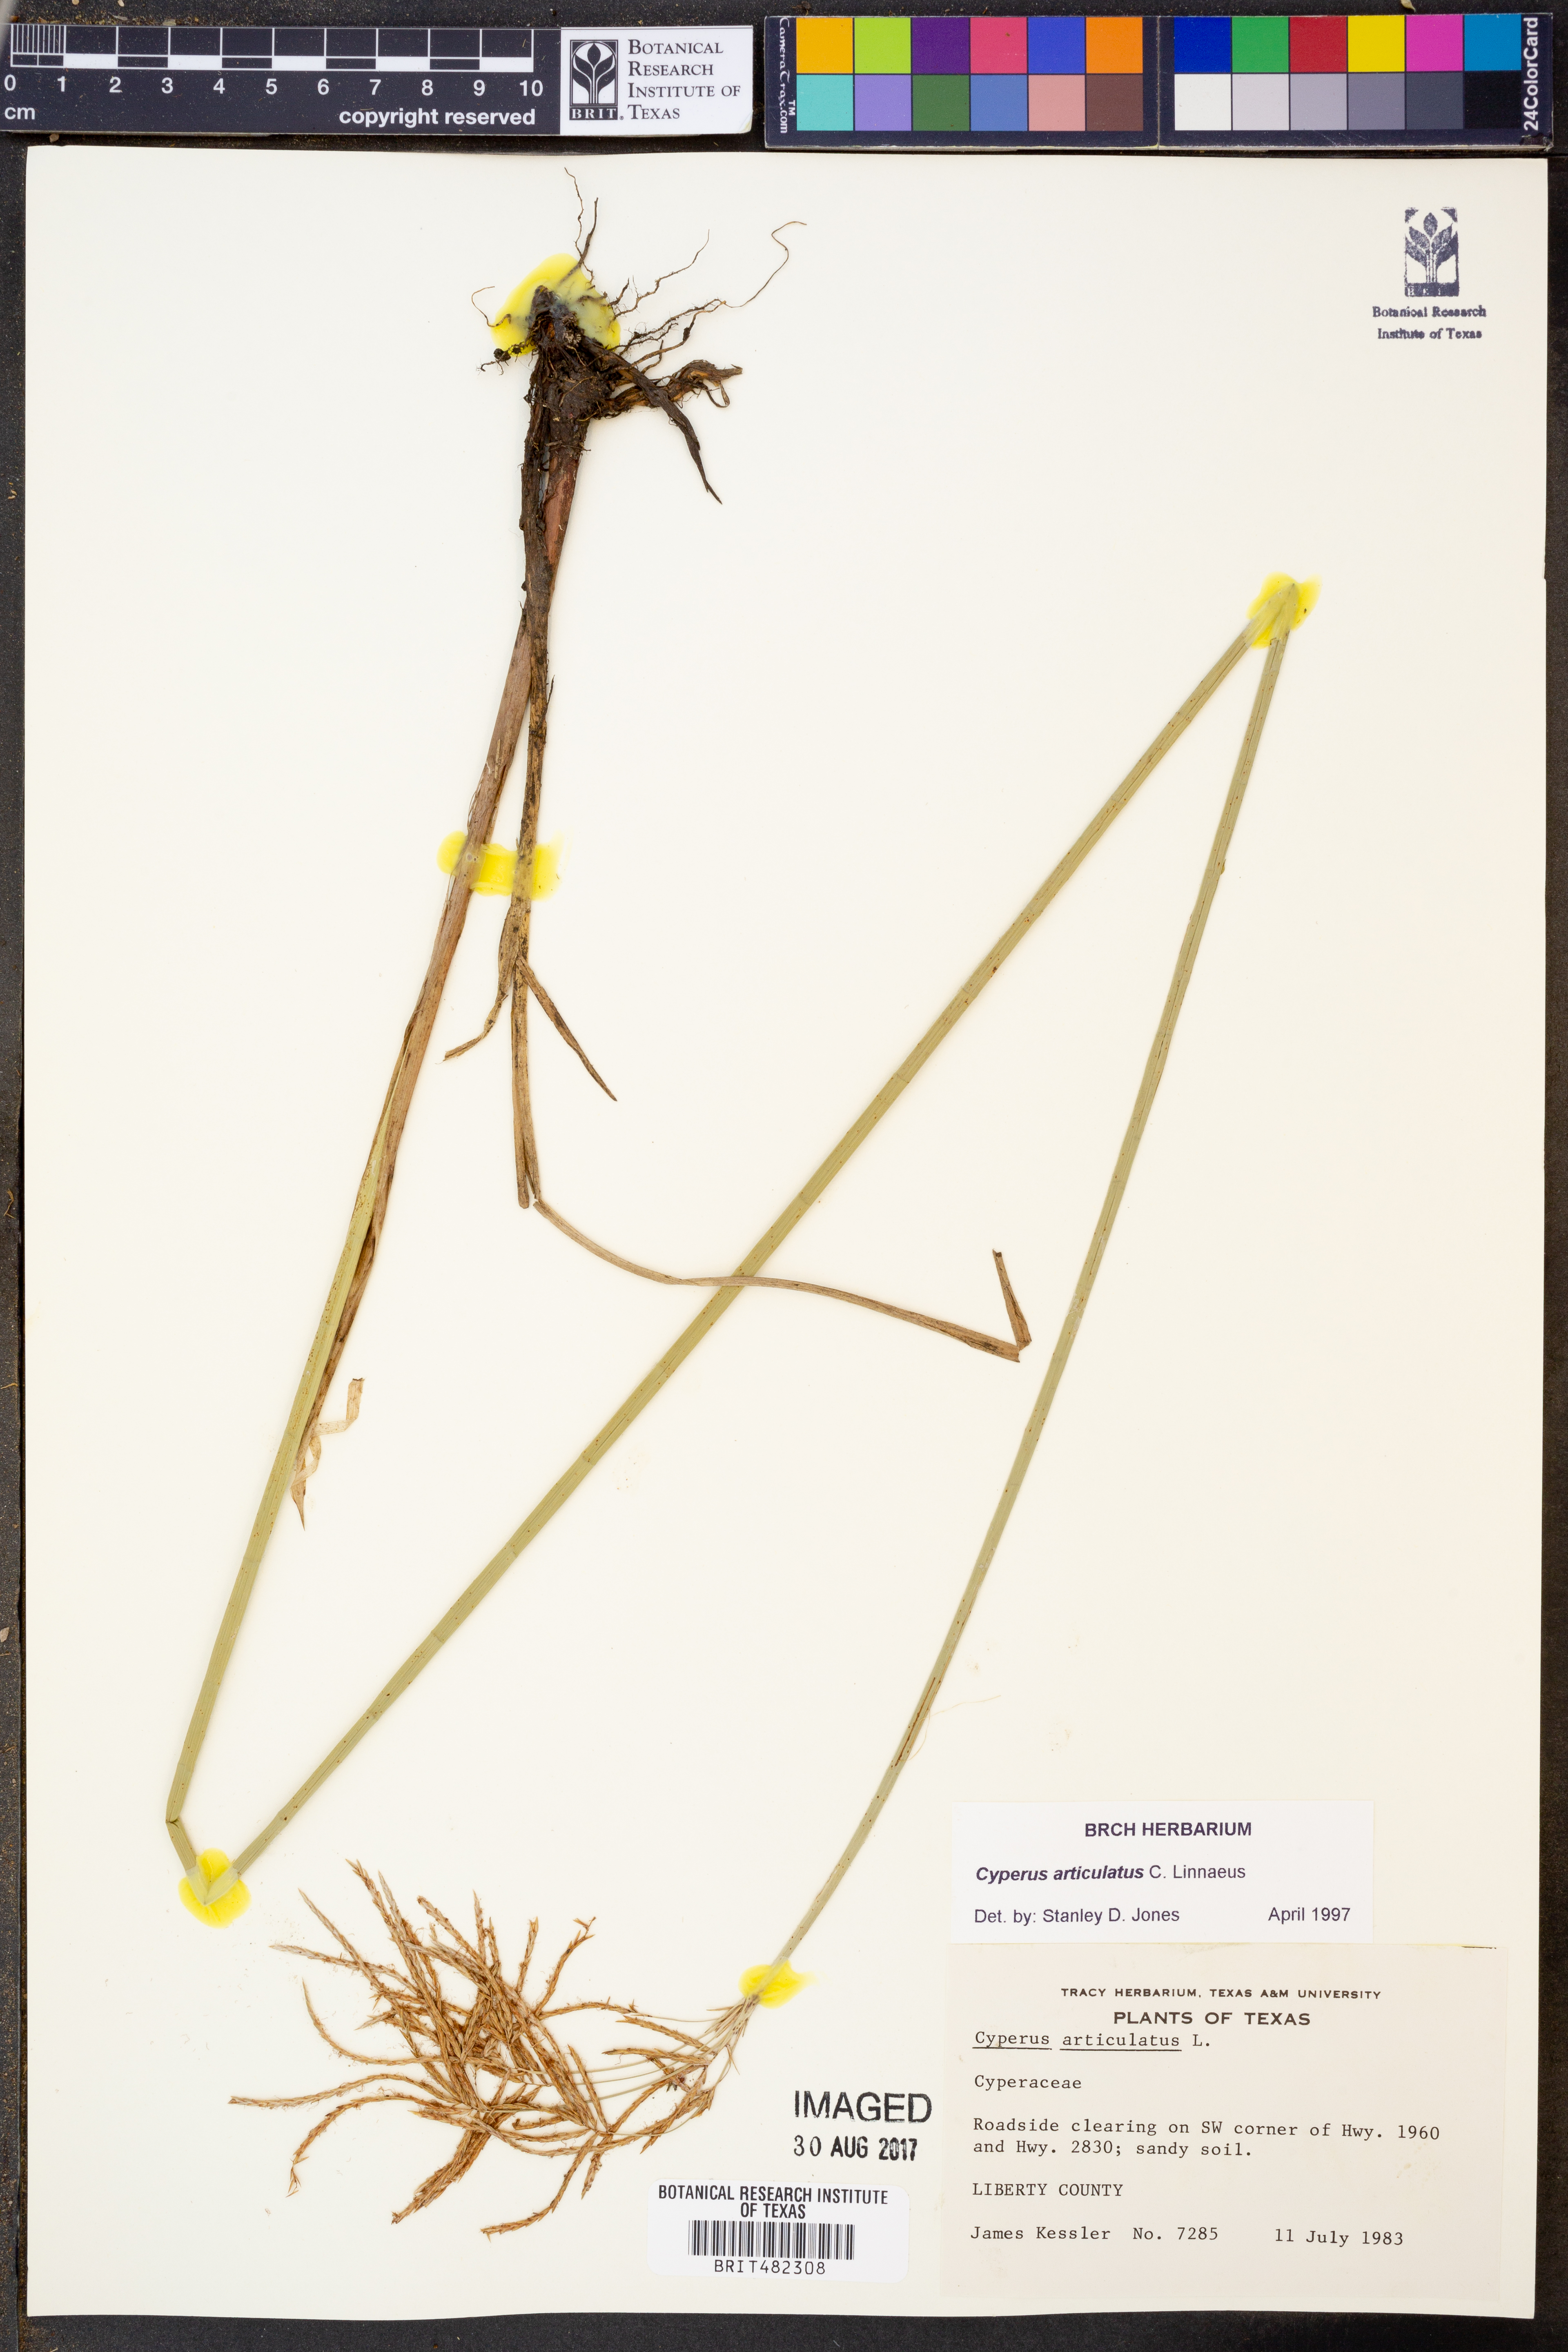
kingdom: Plantae
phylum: Tracheophyta
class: Liliopsida
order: Poales
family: Cyperaceae
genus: Cyperus
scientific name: Cyperus articulatus
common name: Jointed flatsedge
